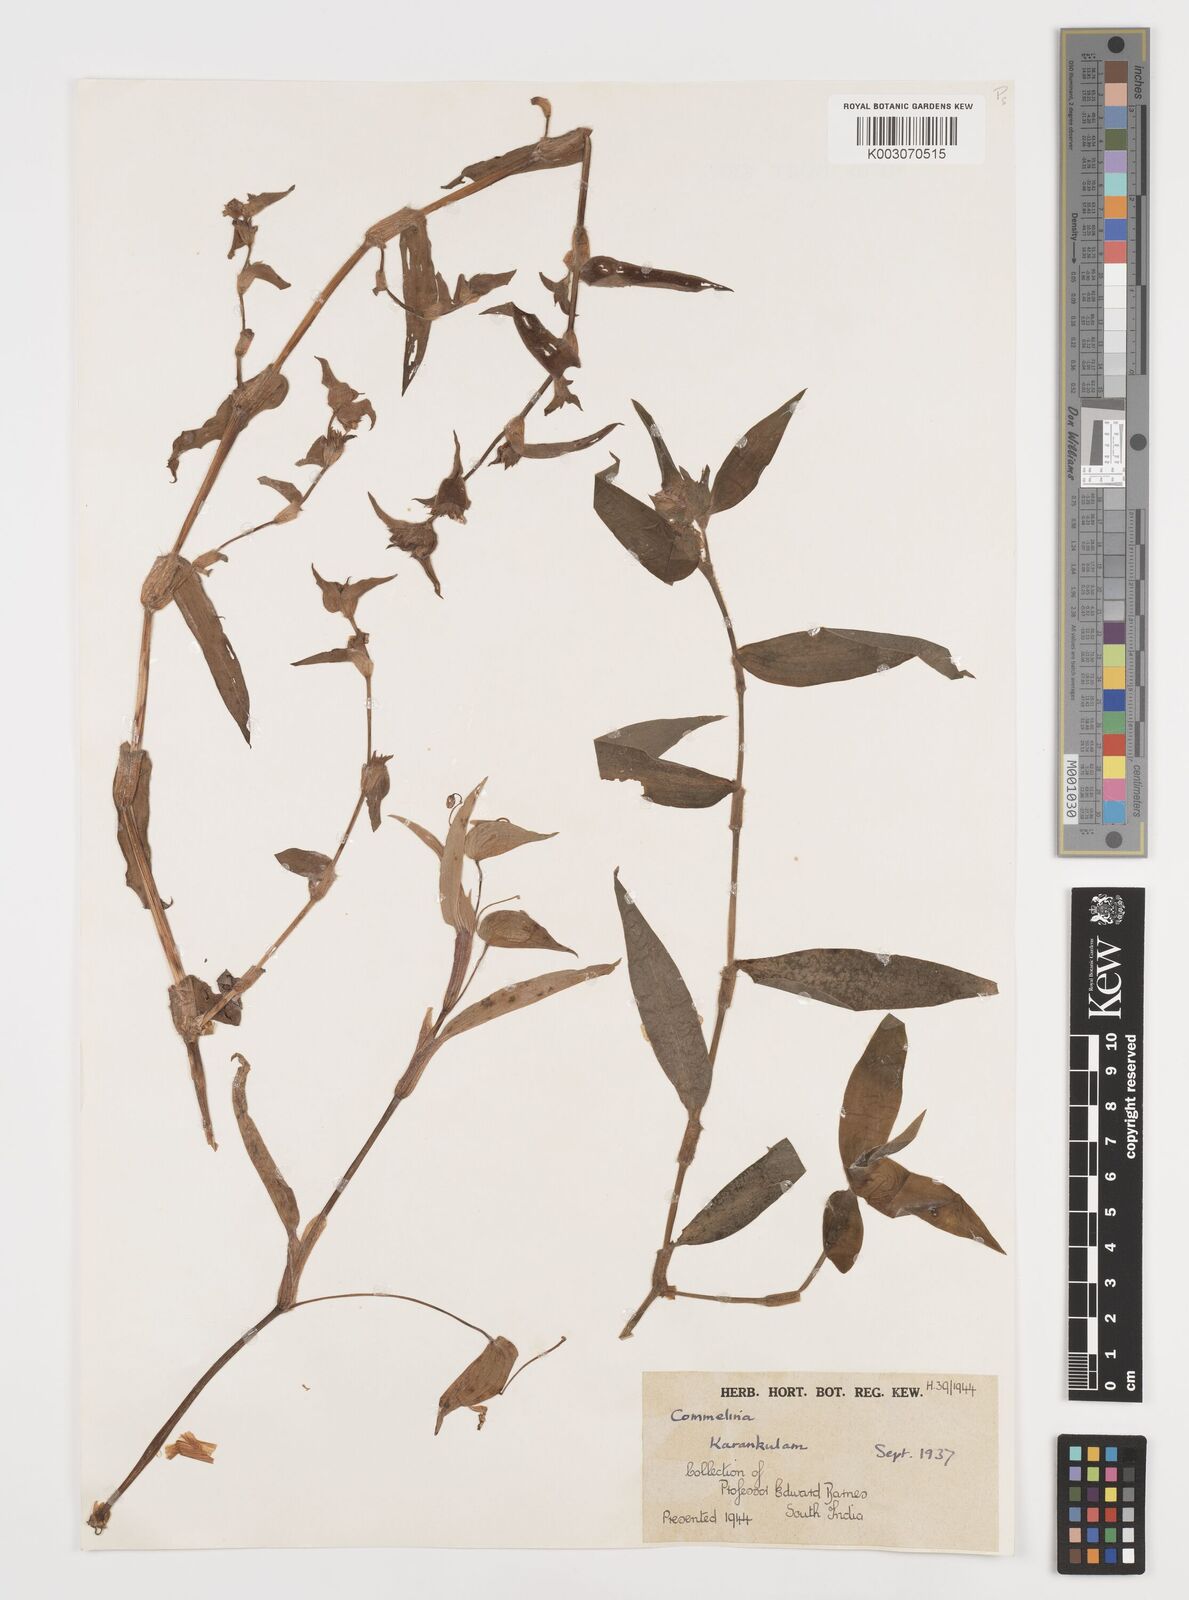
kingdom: Plantae
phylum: Tracheophyta
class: Liliopsida
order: Commelinales
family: Commelinaceae
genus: Commelina
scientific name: Commelina
